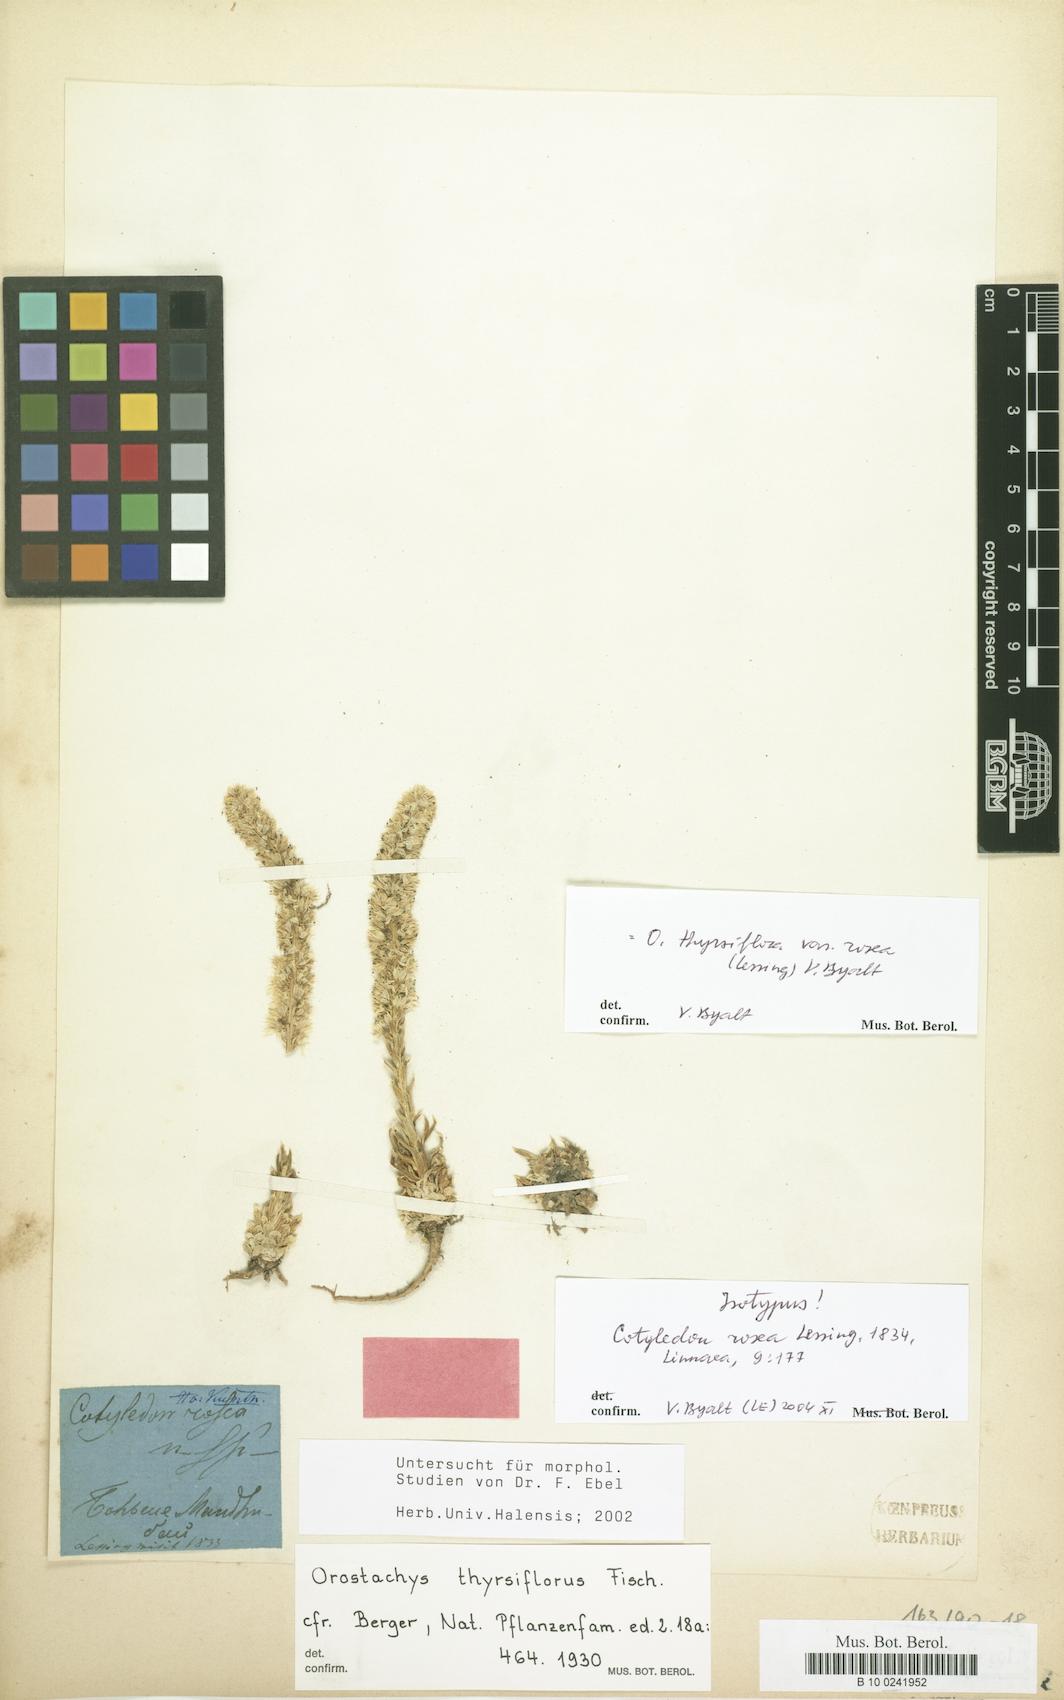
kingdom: Plantae
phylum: Tracheophyta
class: Magnoliopsida
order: Saxifragales
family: Crassulaceae
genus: Orostachys
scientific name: Orostachys
